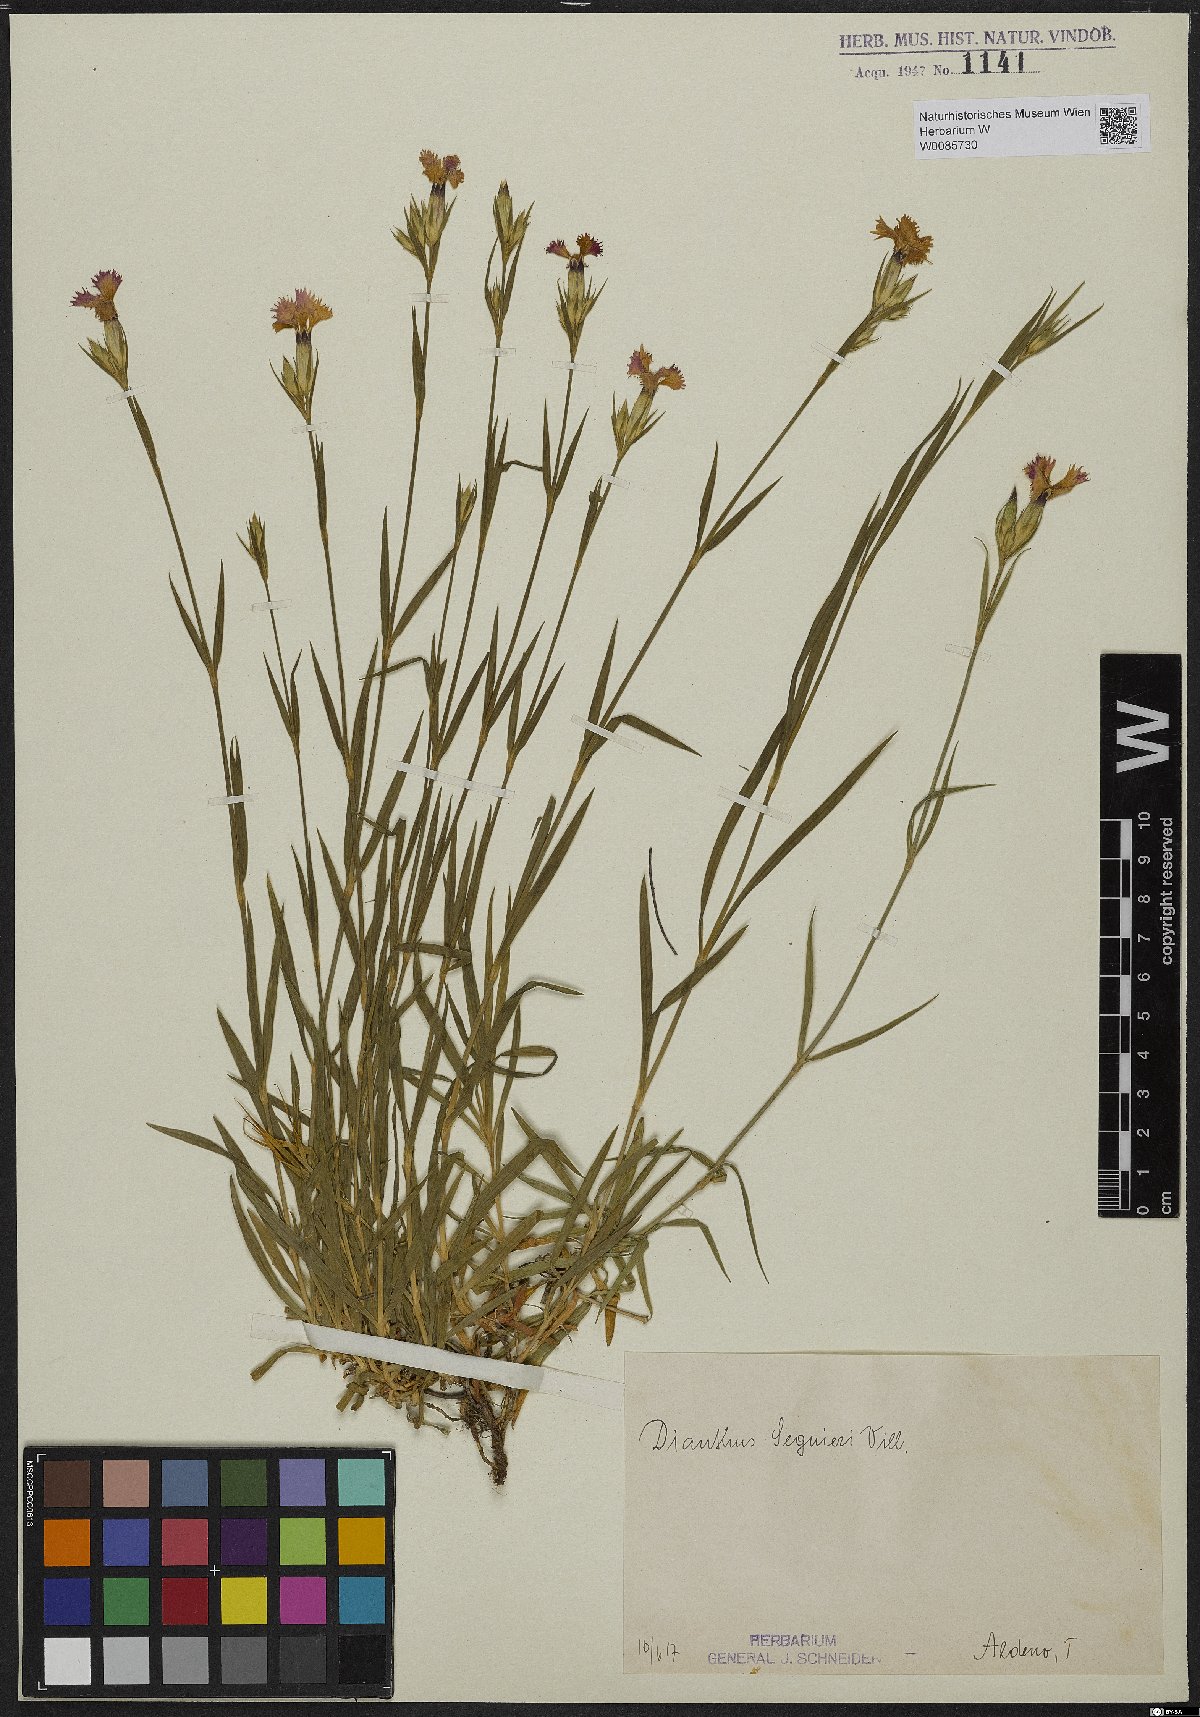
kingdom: Plantae
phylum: Tracheophyta
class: Magnoliopsida
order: Caryophyllales
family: Caryophyllaceae
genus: Dianthus
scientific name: Dianthus seguieri
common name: Ragged pink
